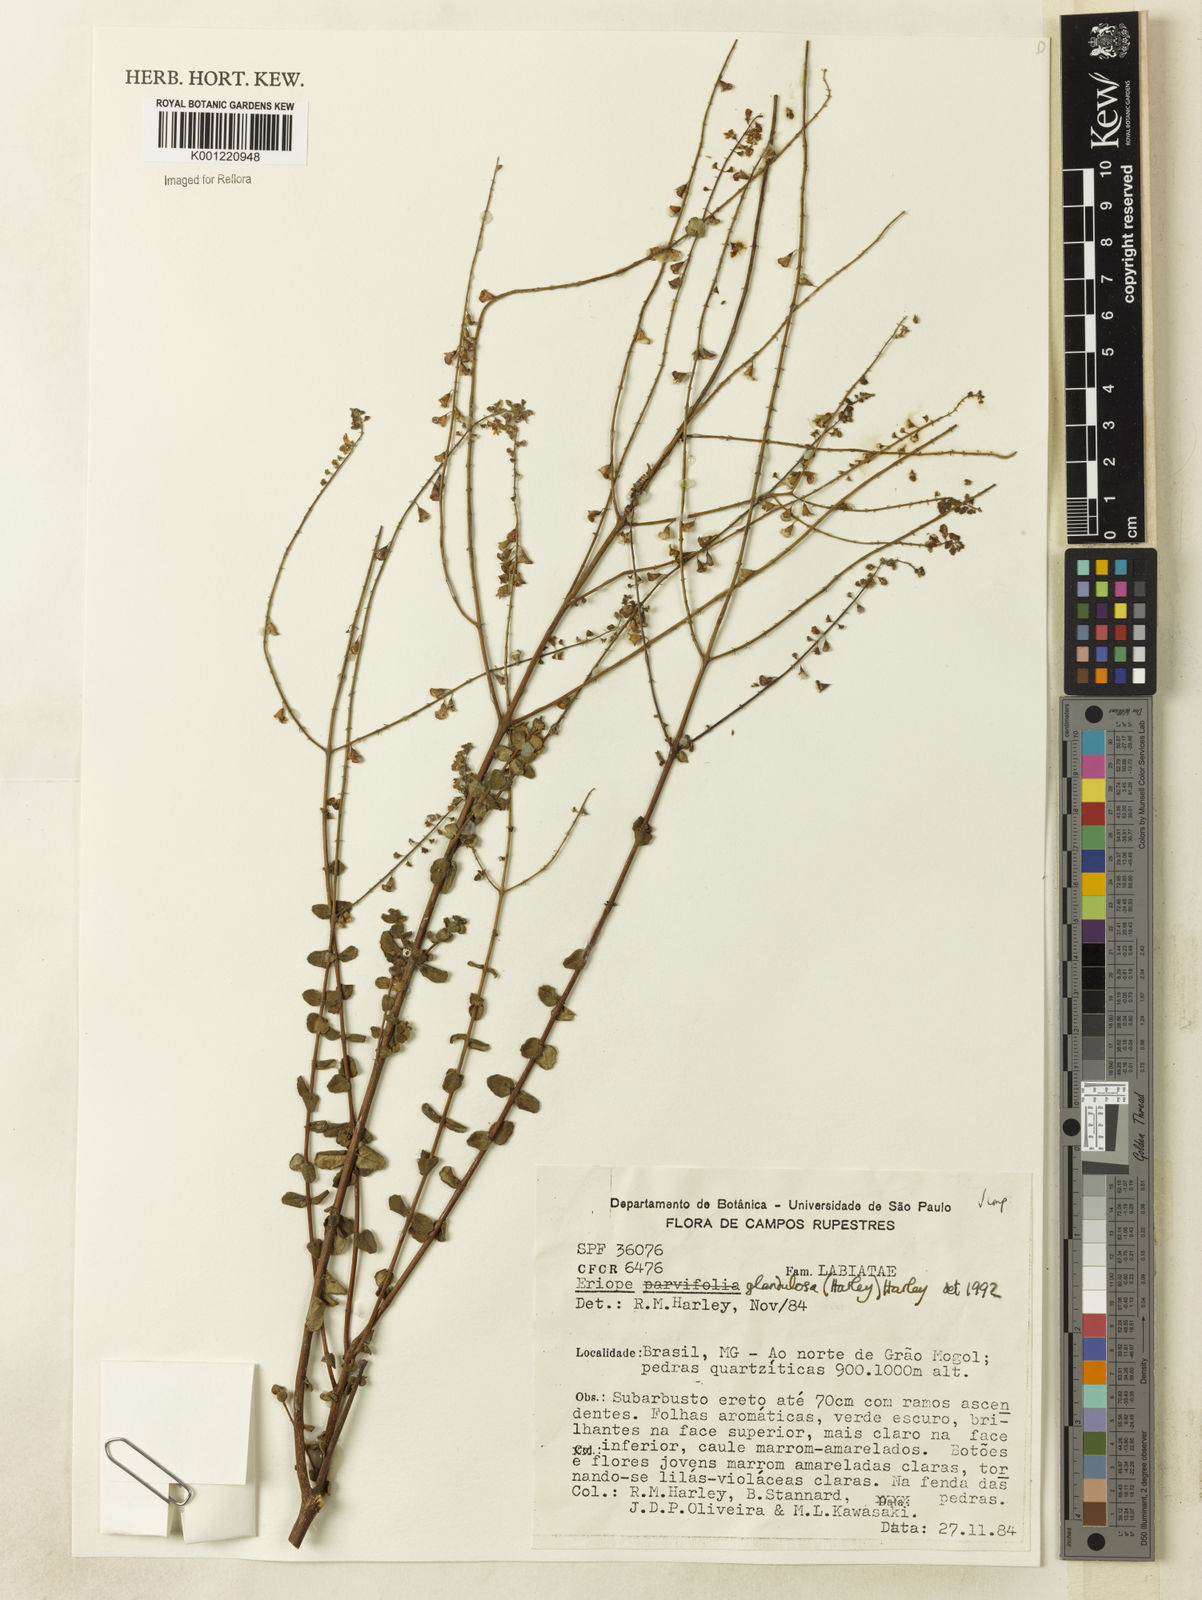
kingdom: Plantae
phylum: Tracheophyta
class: Magnoliopsida
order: Lamiales
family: Lamiaceae
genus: Eriope
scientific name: Eriope glandulosa
